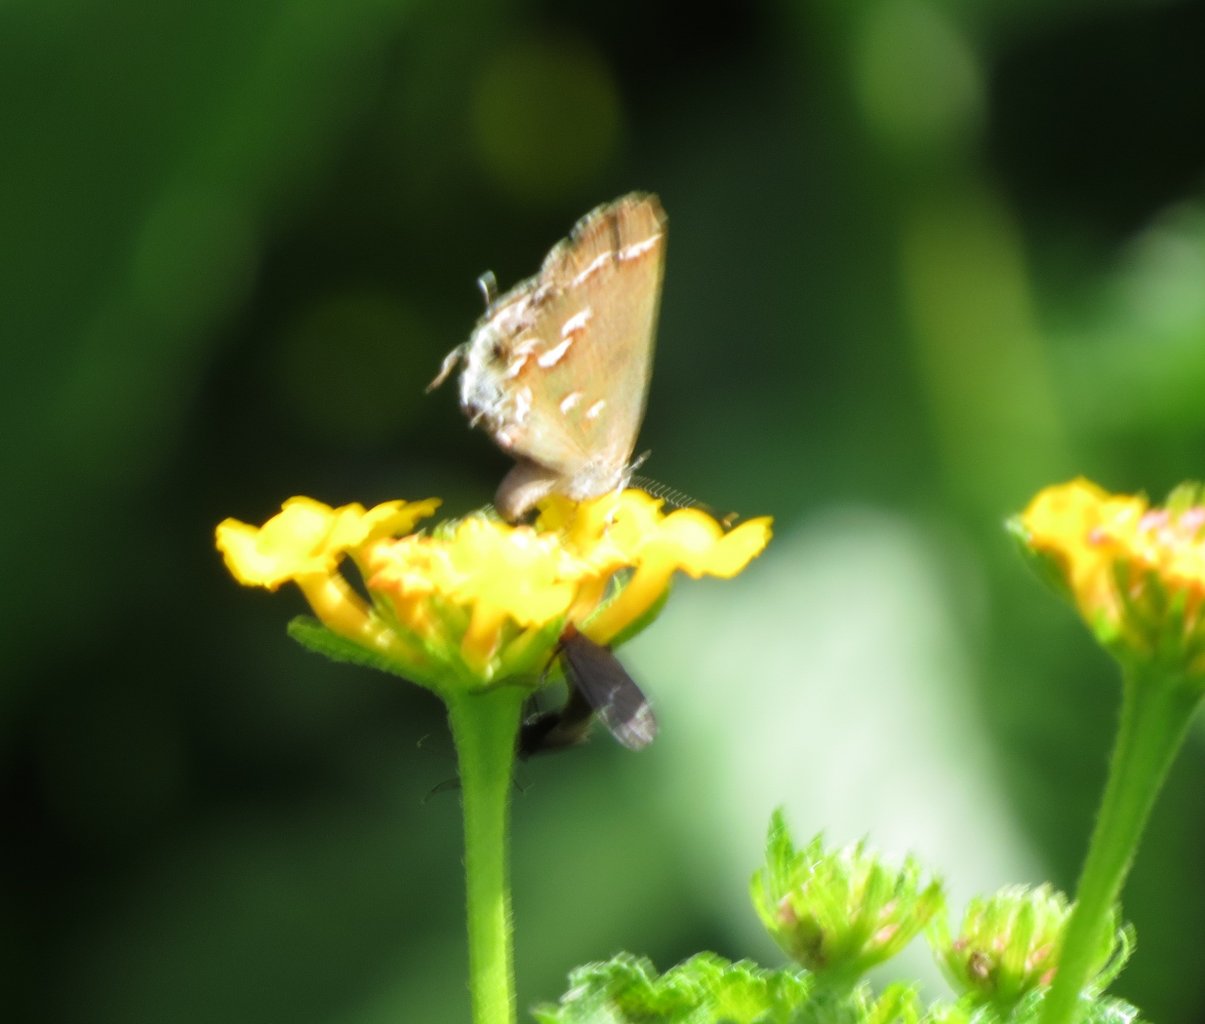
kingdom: Animalia
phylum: Arthropoda
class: Insecta
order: Lepidoptera
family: Lycaenidae
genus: Calycopis
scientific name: Calycopis cecrops
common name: Red-banded Hairstreak
